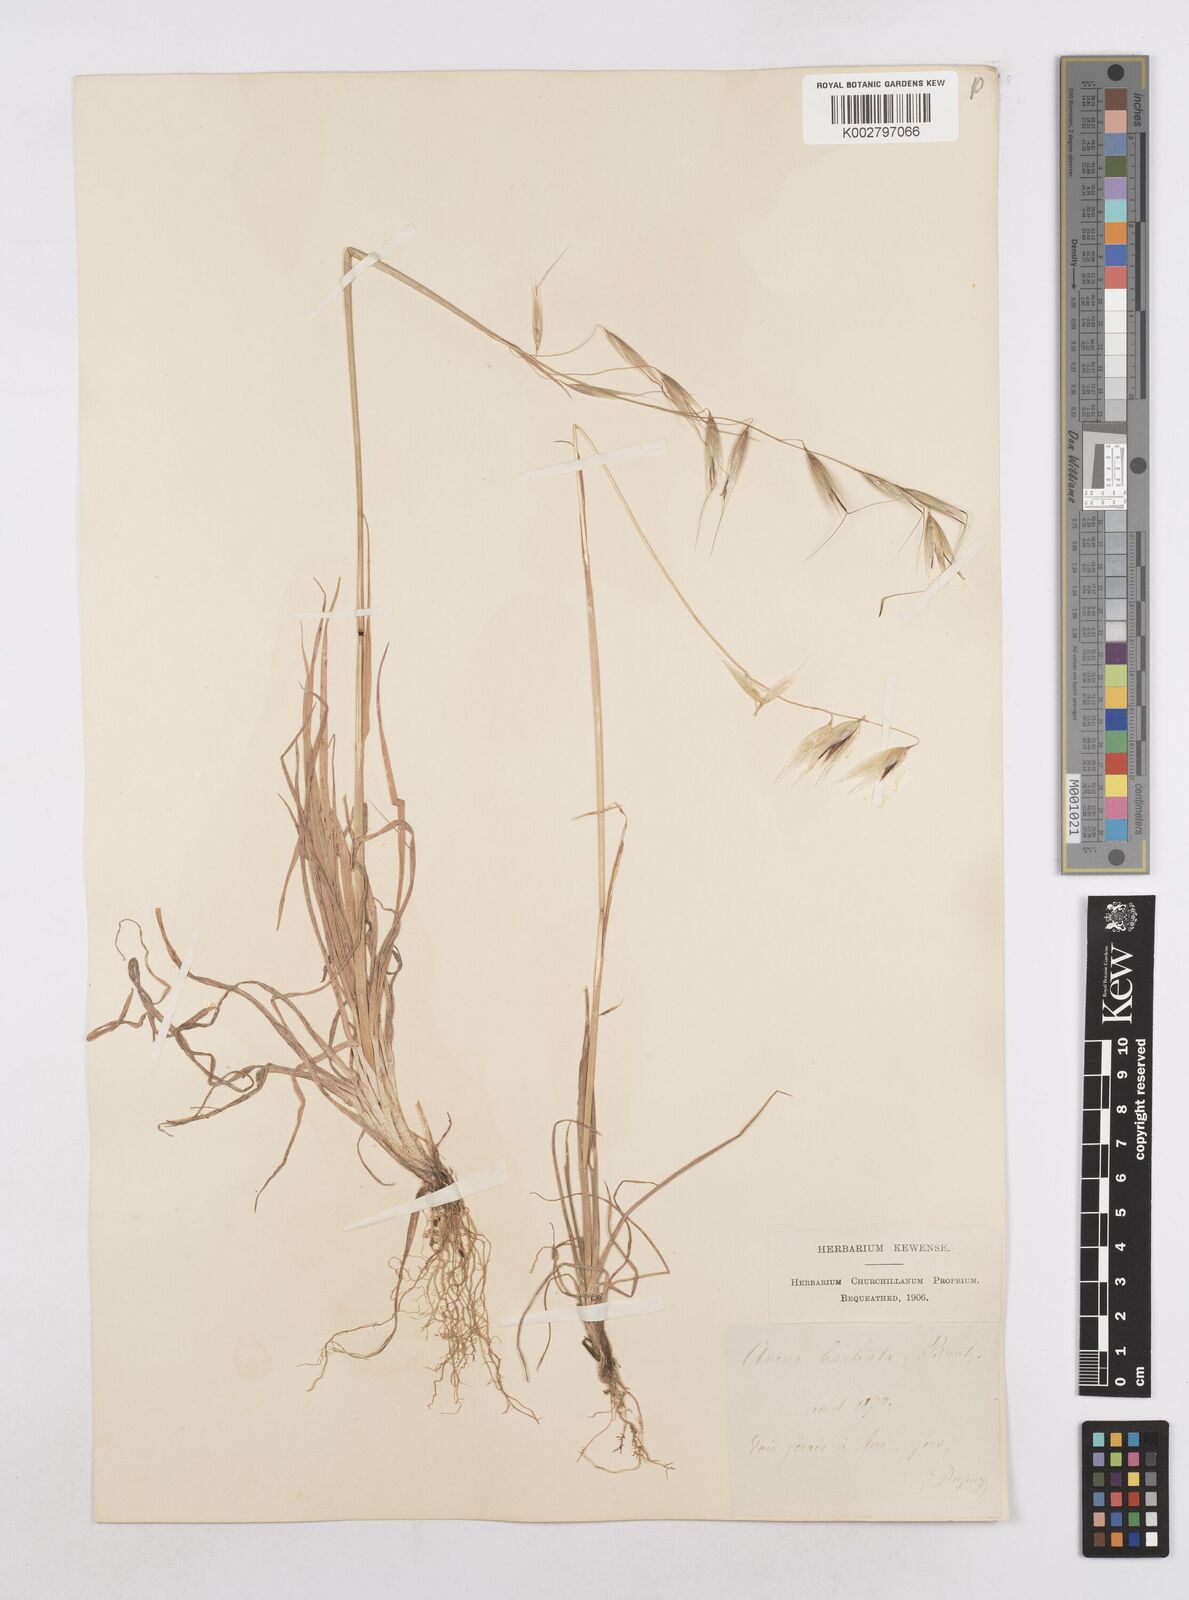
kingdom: Plantae
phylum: Tracheophyta
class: Liliopsida
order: Poales
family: Poaceae
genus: Avena
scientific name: Avena
